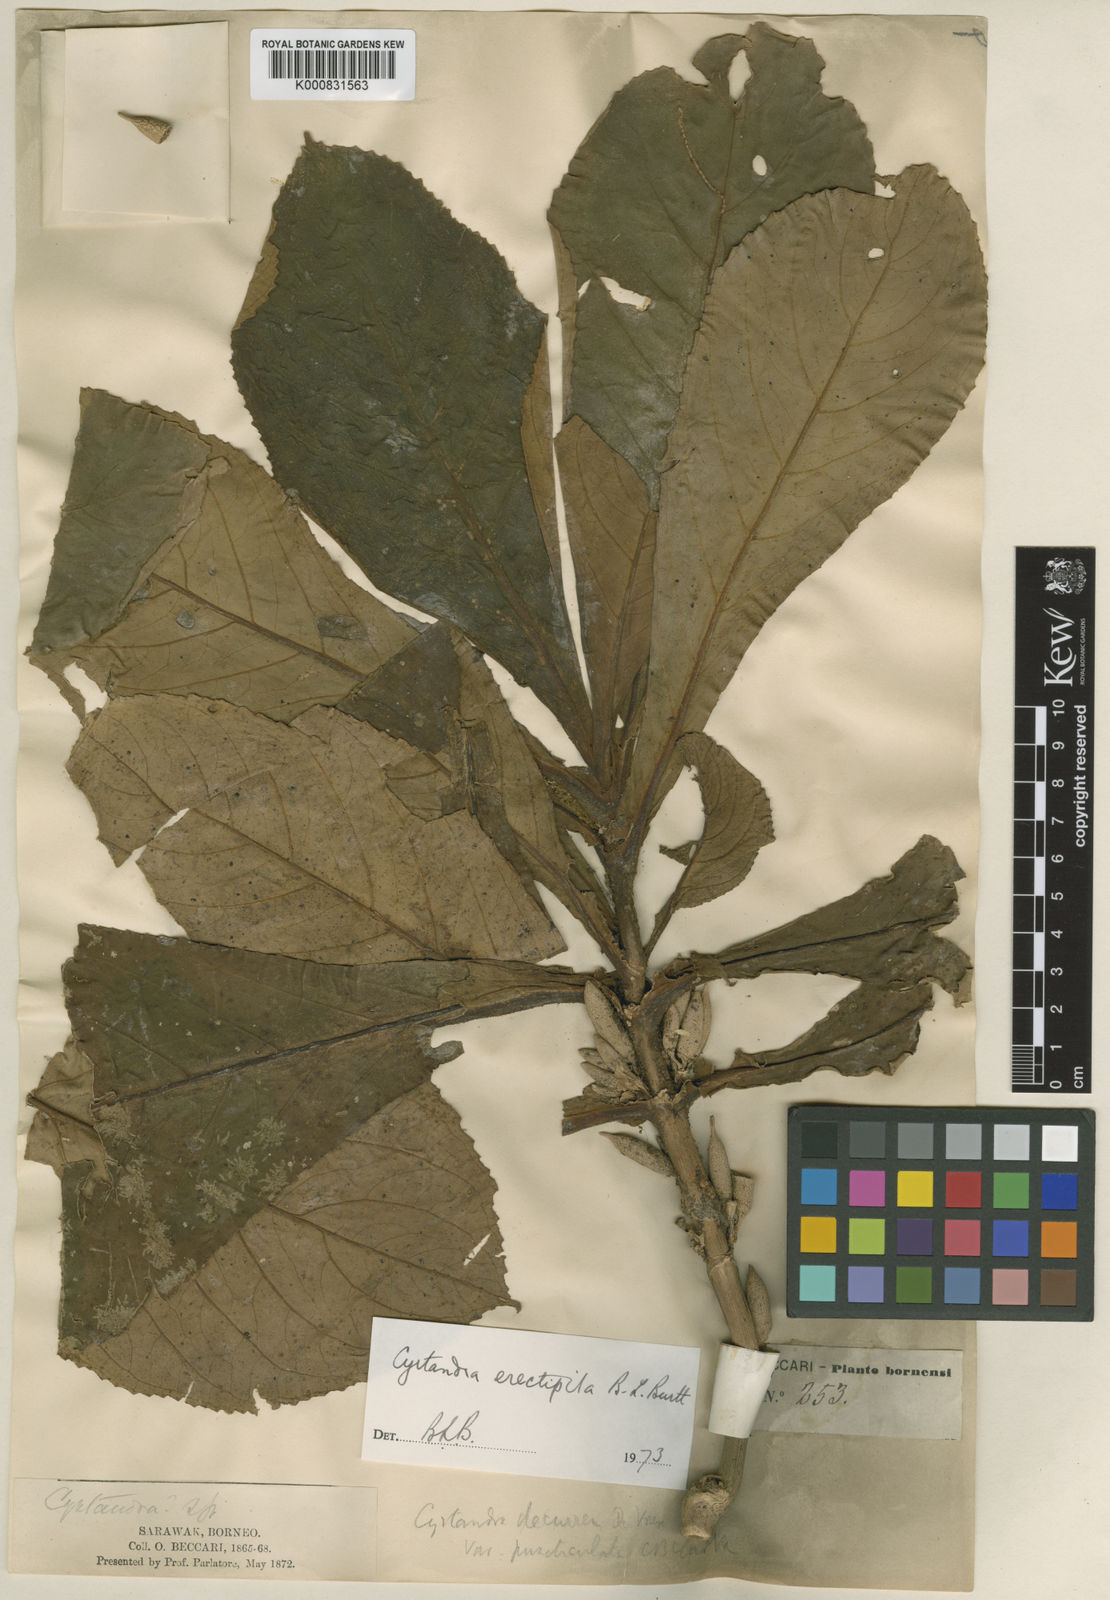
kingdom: Plantae
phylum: Tracheophyta
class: Magnoliopsida
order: Lamiales
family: Gesneriaceae
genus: Cyrtandra
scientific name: Cyrtandra erectipila
